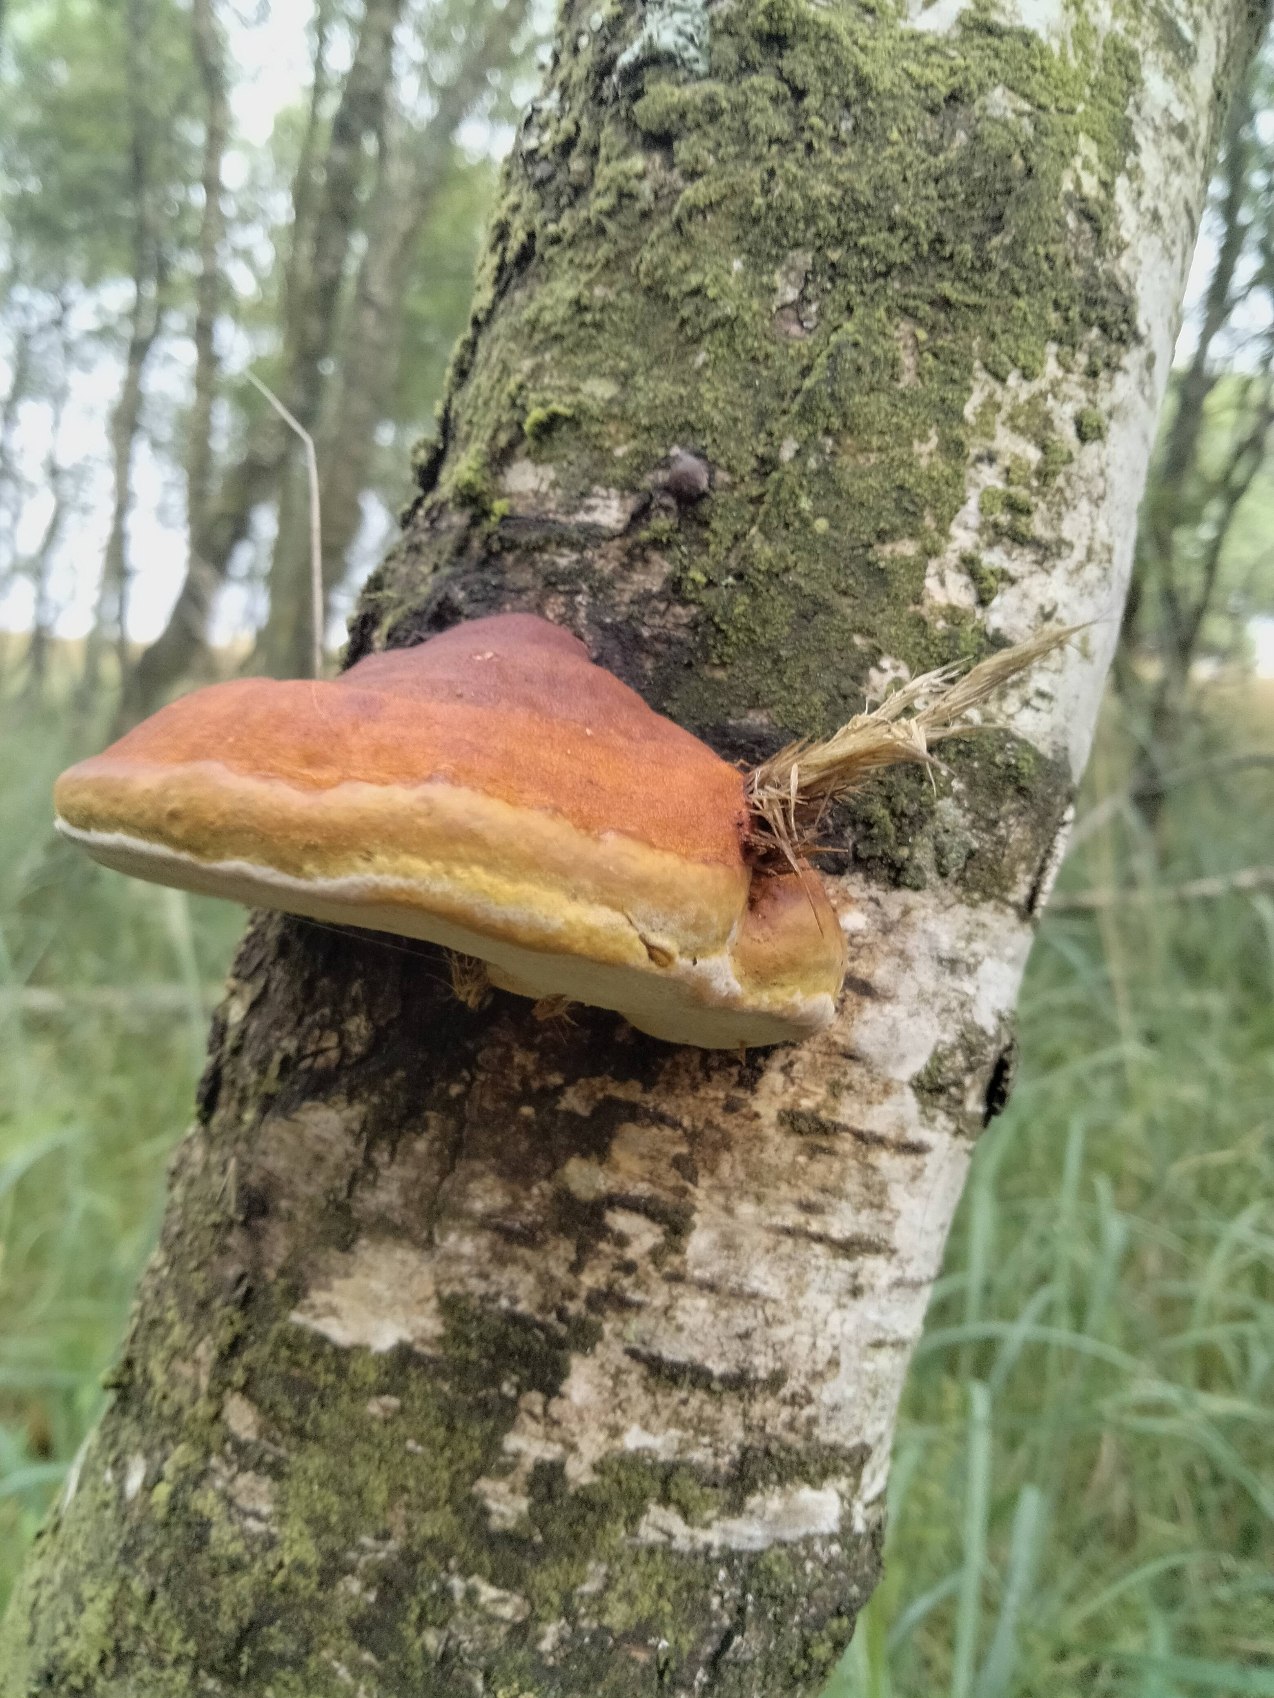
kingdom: Fungi
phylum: Basidiomycota
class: Agaricomycetes
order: Polyporales
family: Fomitopsidaceae
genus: Fomitopsis
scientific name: Fomitopsis pinicola
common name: Randbæltet hovporesvamp
